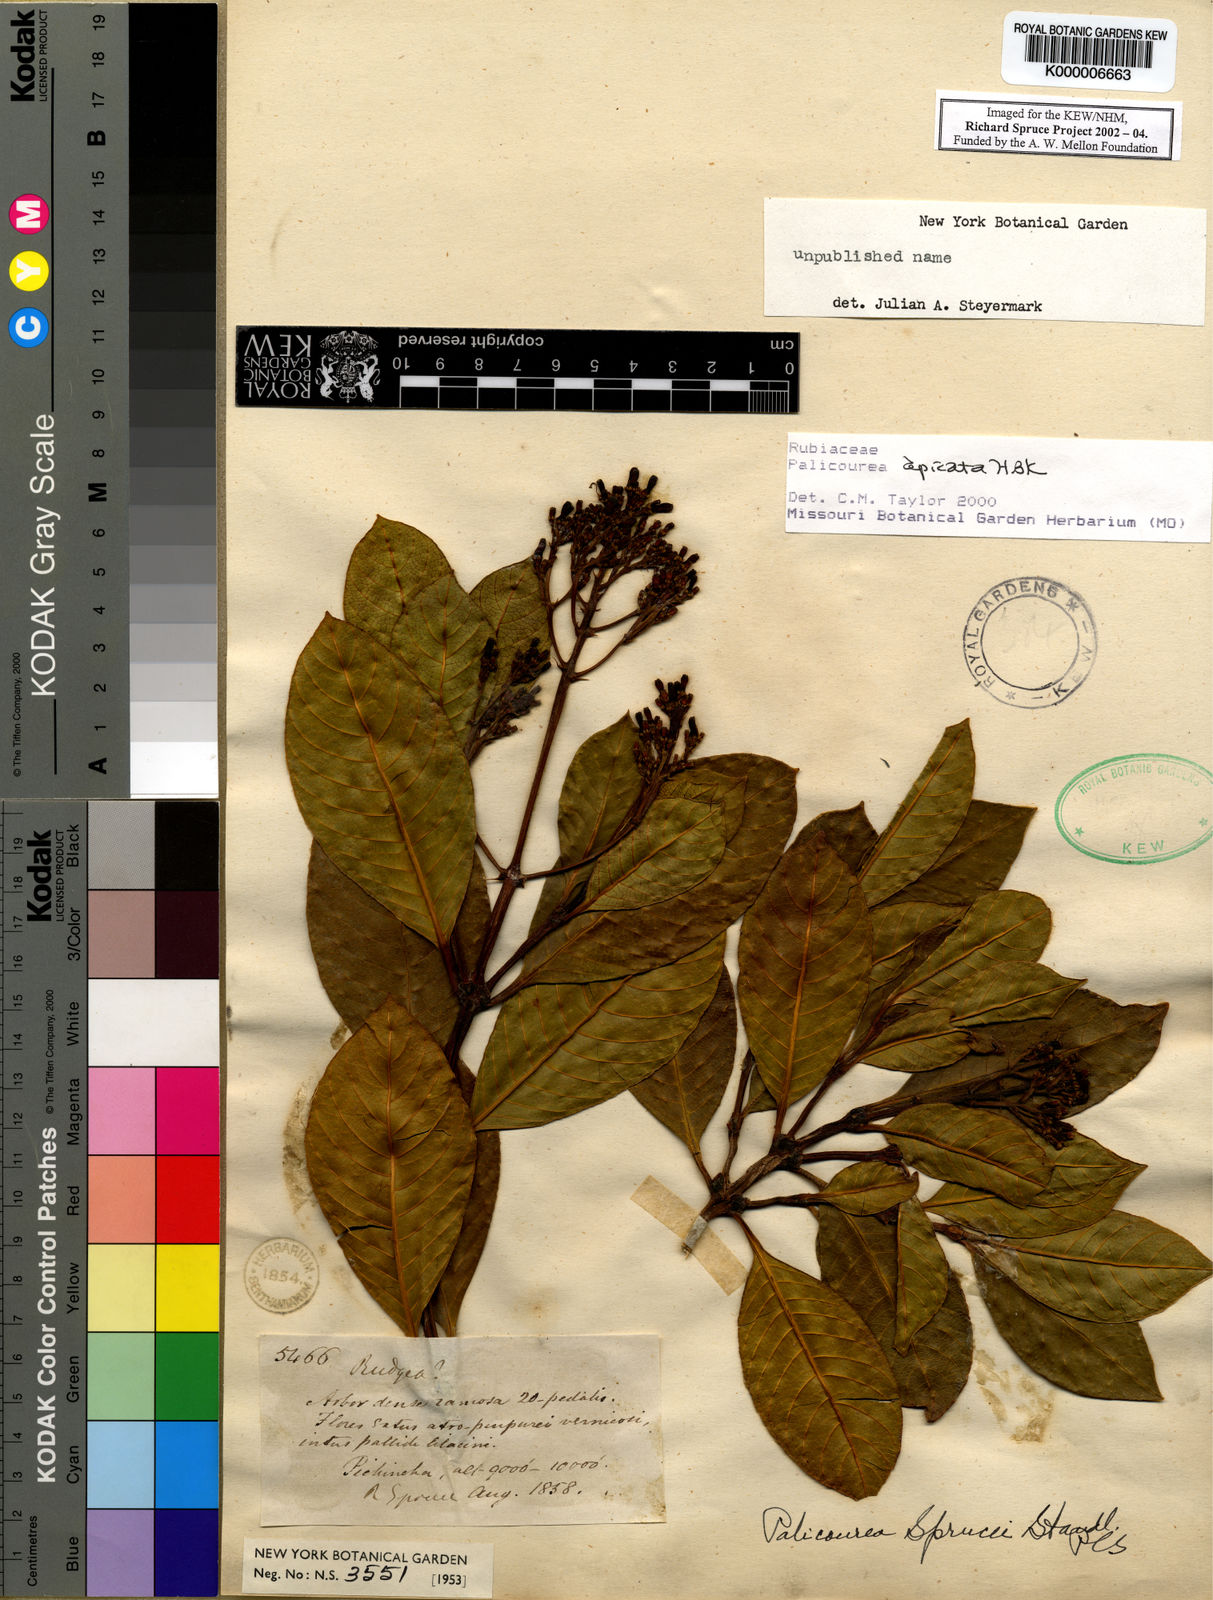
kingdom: Plantae
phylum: Tracheophyta
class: Magnoliopsida
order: Gentianales
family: Rubiaceae
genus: Palicourea
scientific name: Palicourea apicata
